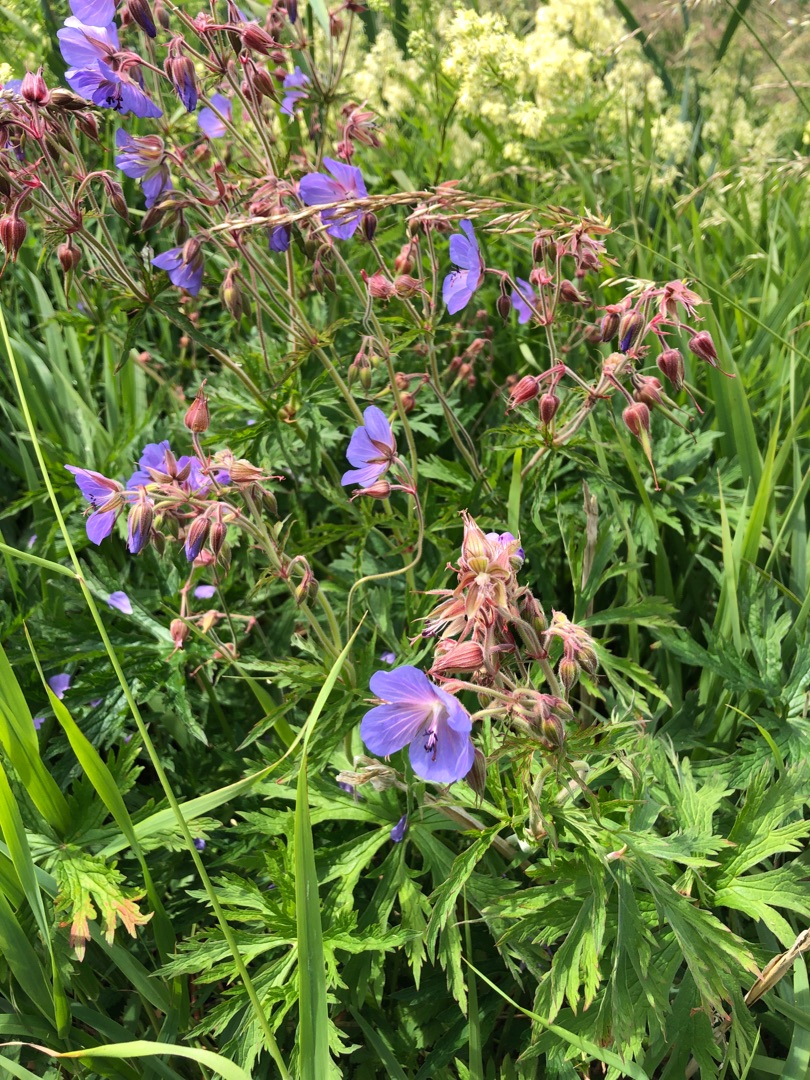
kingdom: Plantae
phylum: Tracheophyta
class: Magnoliopsida
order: Geraniales
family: Geraniaceae
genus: Geranium
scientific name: Geranium pratense
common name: Eng-storkenæb
